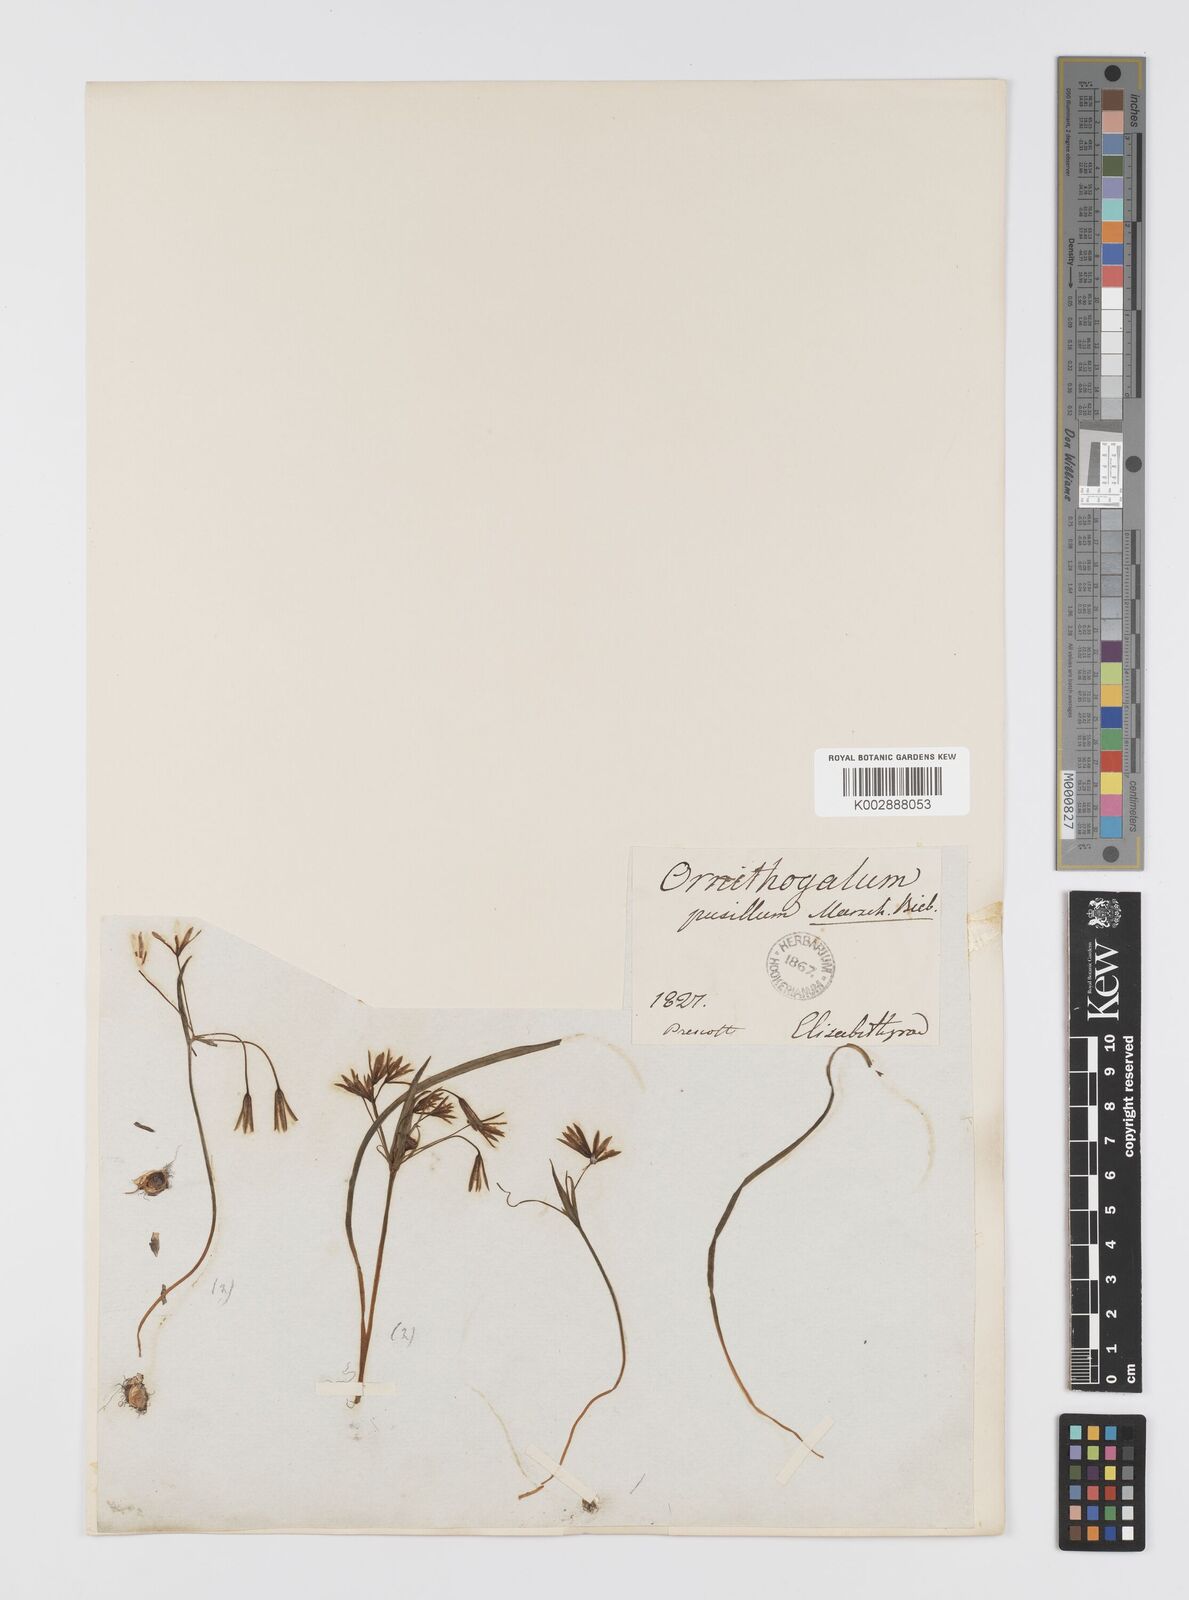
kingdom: Plantae
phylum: Tracheophyta
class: Liliopsida
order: Liliales
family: Liliaceae
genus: Gagea
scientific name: Gagea pusilla
